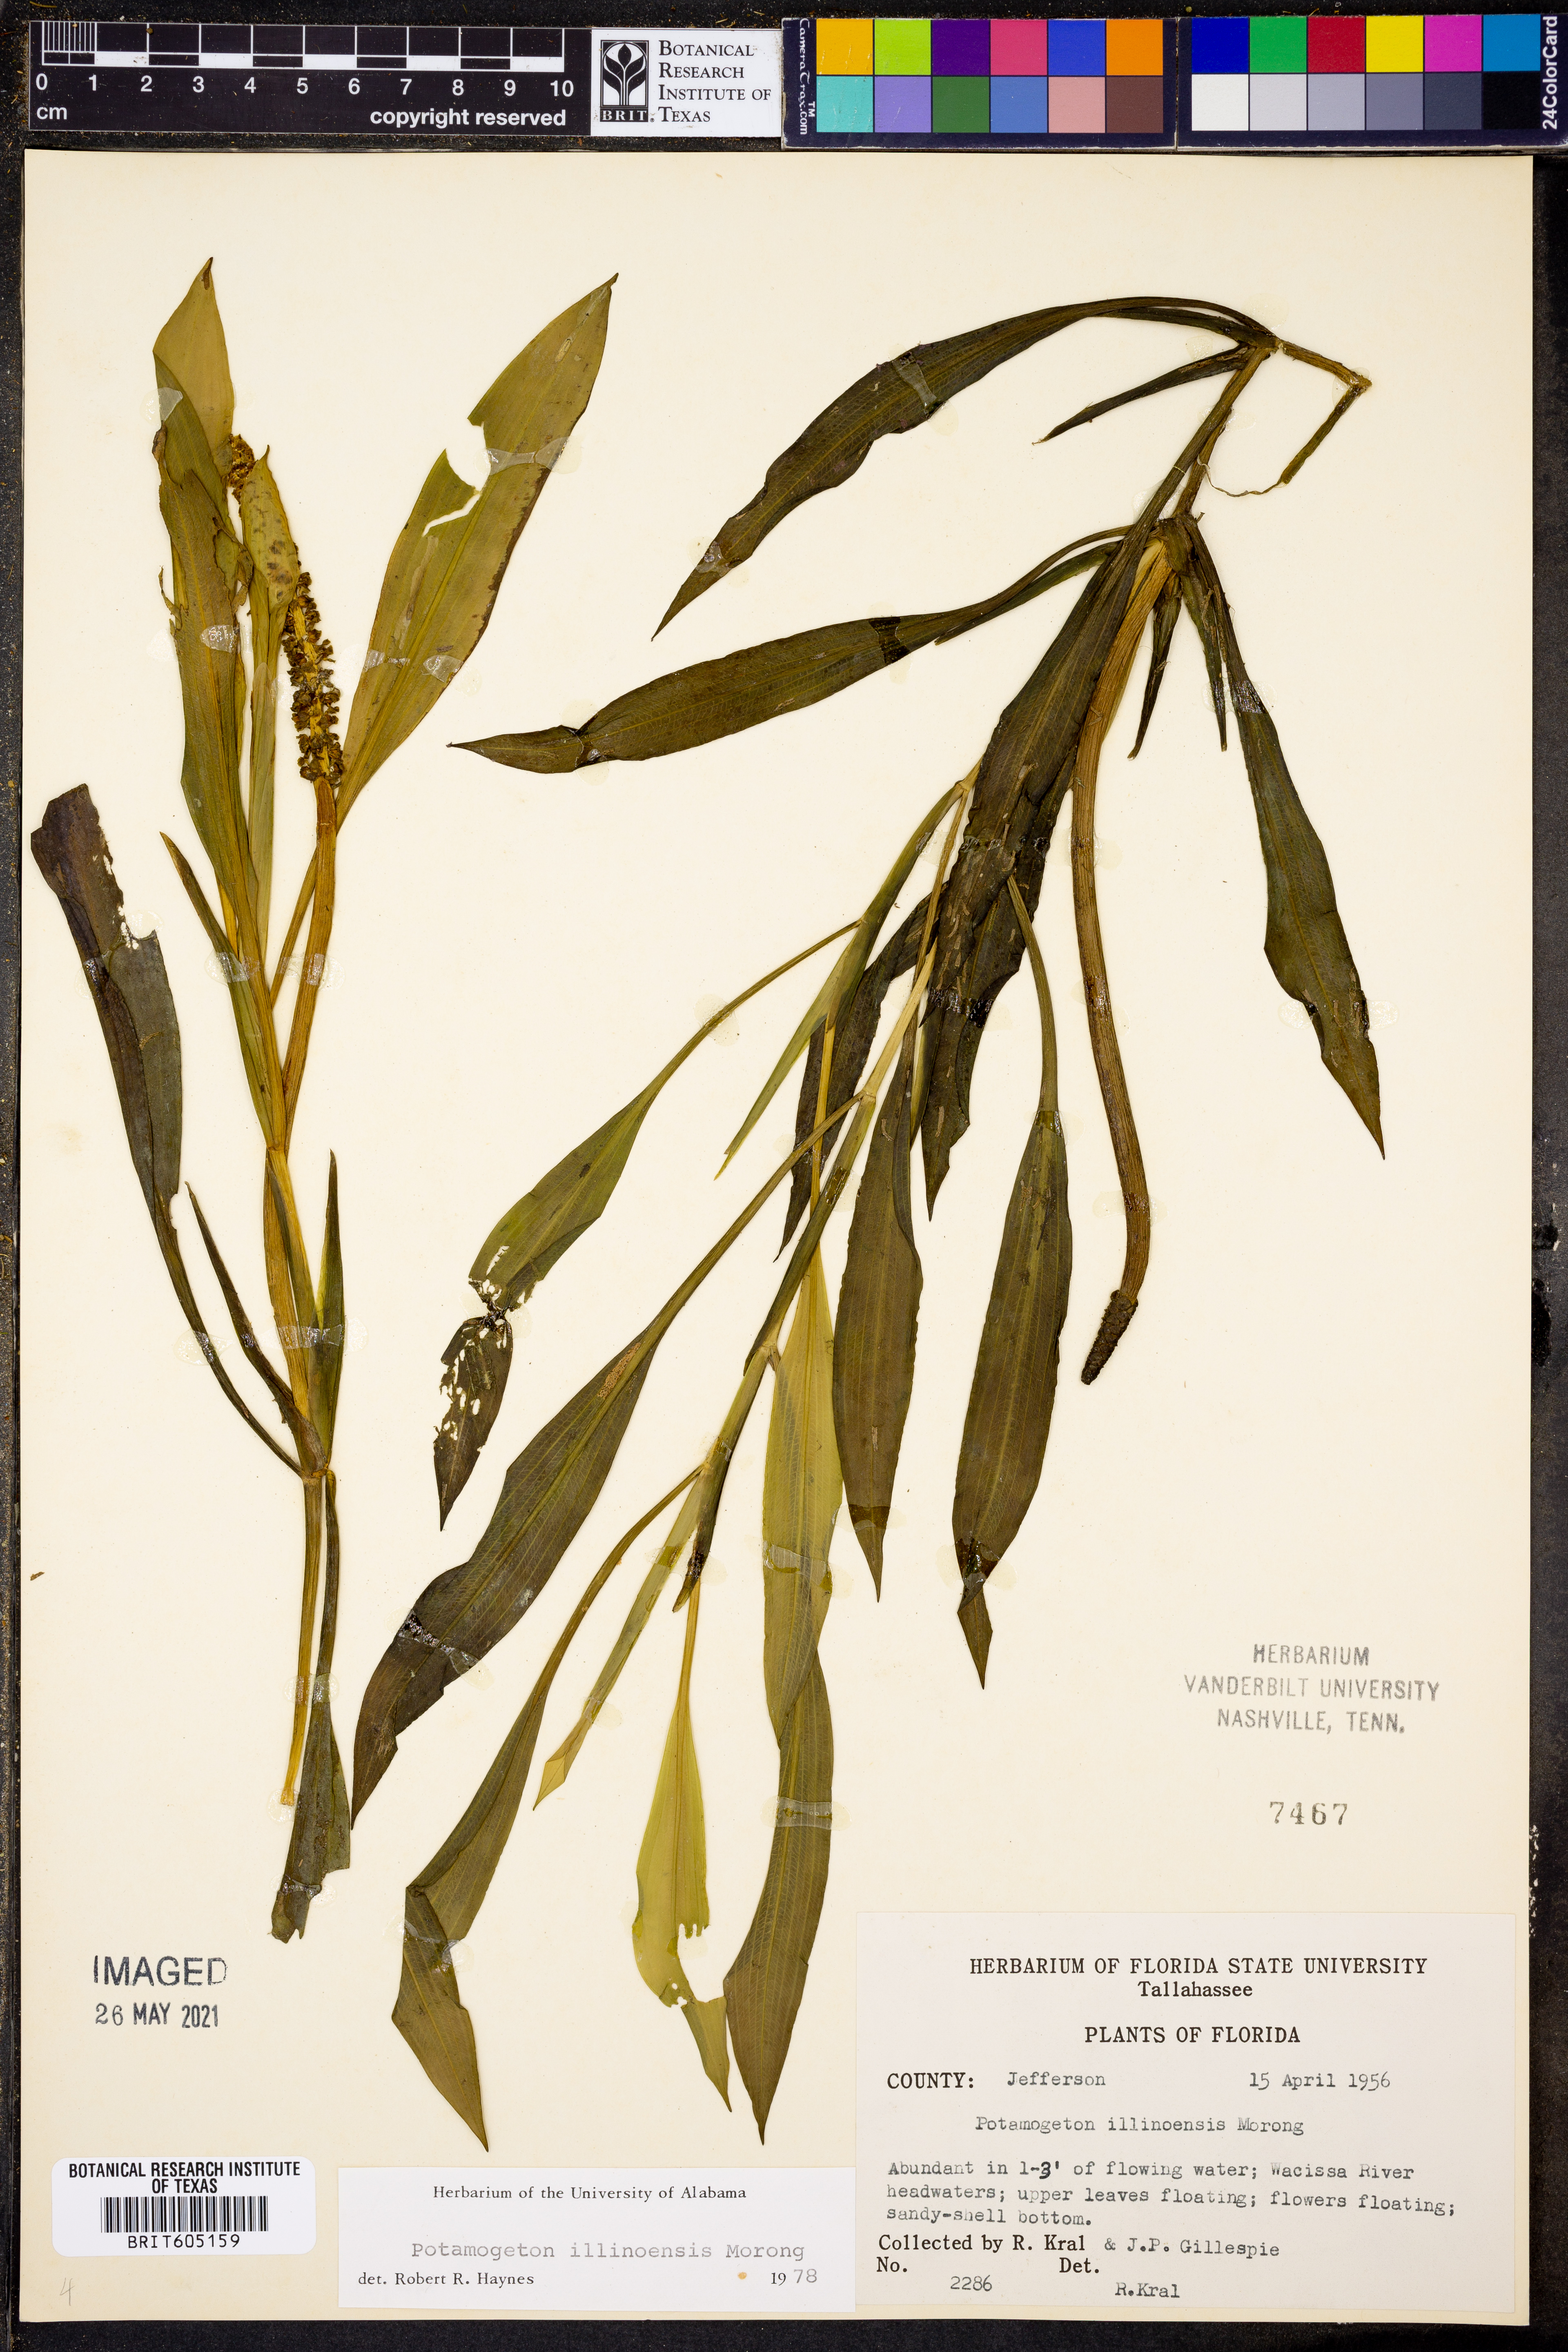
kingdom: Plantae
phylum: Tracheophyta
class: Liliopsida
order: Alismatales
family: Potamogetonaceae
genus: Potamogeton
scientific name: Potamogeton illinoensis
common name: Illinois pondweed
